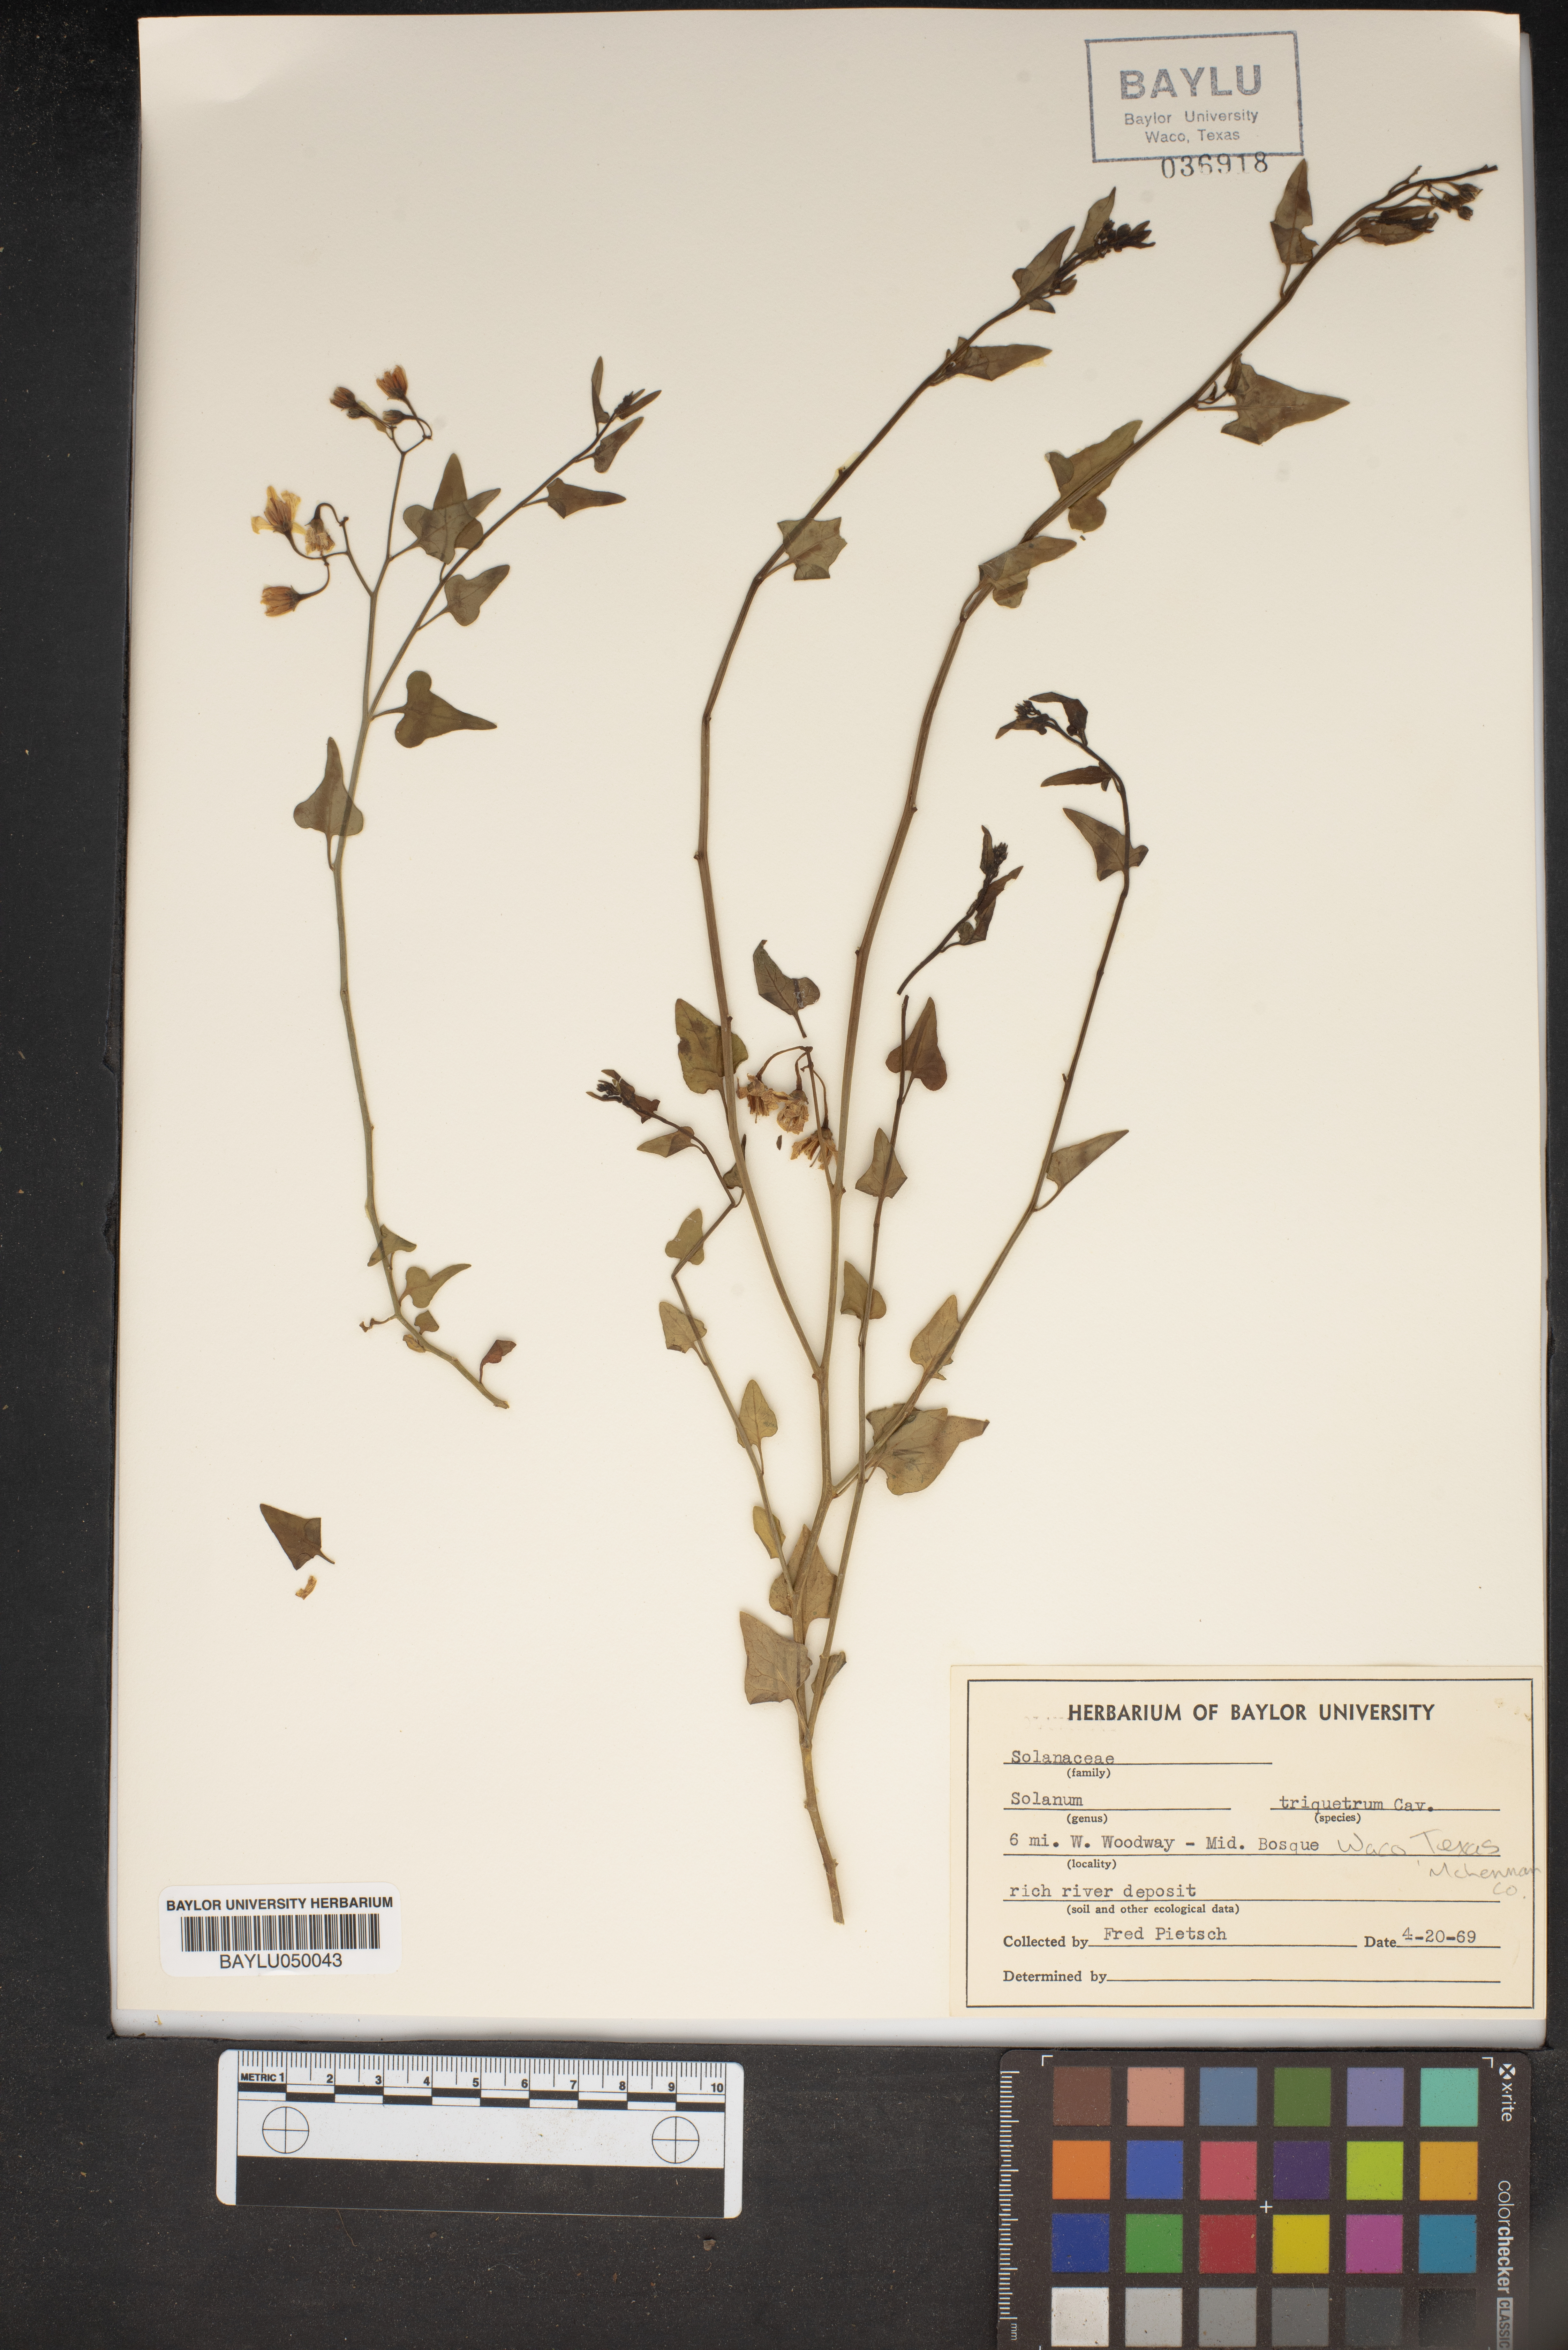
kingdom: Plantae
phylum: Tracheophyta
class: Magnoliopsida
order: Solanales
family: Solanaceae
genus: Solanum
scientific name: Solanum triquetrum
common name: Texas nightshade
